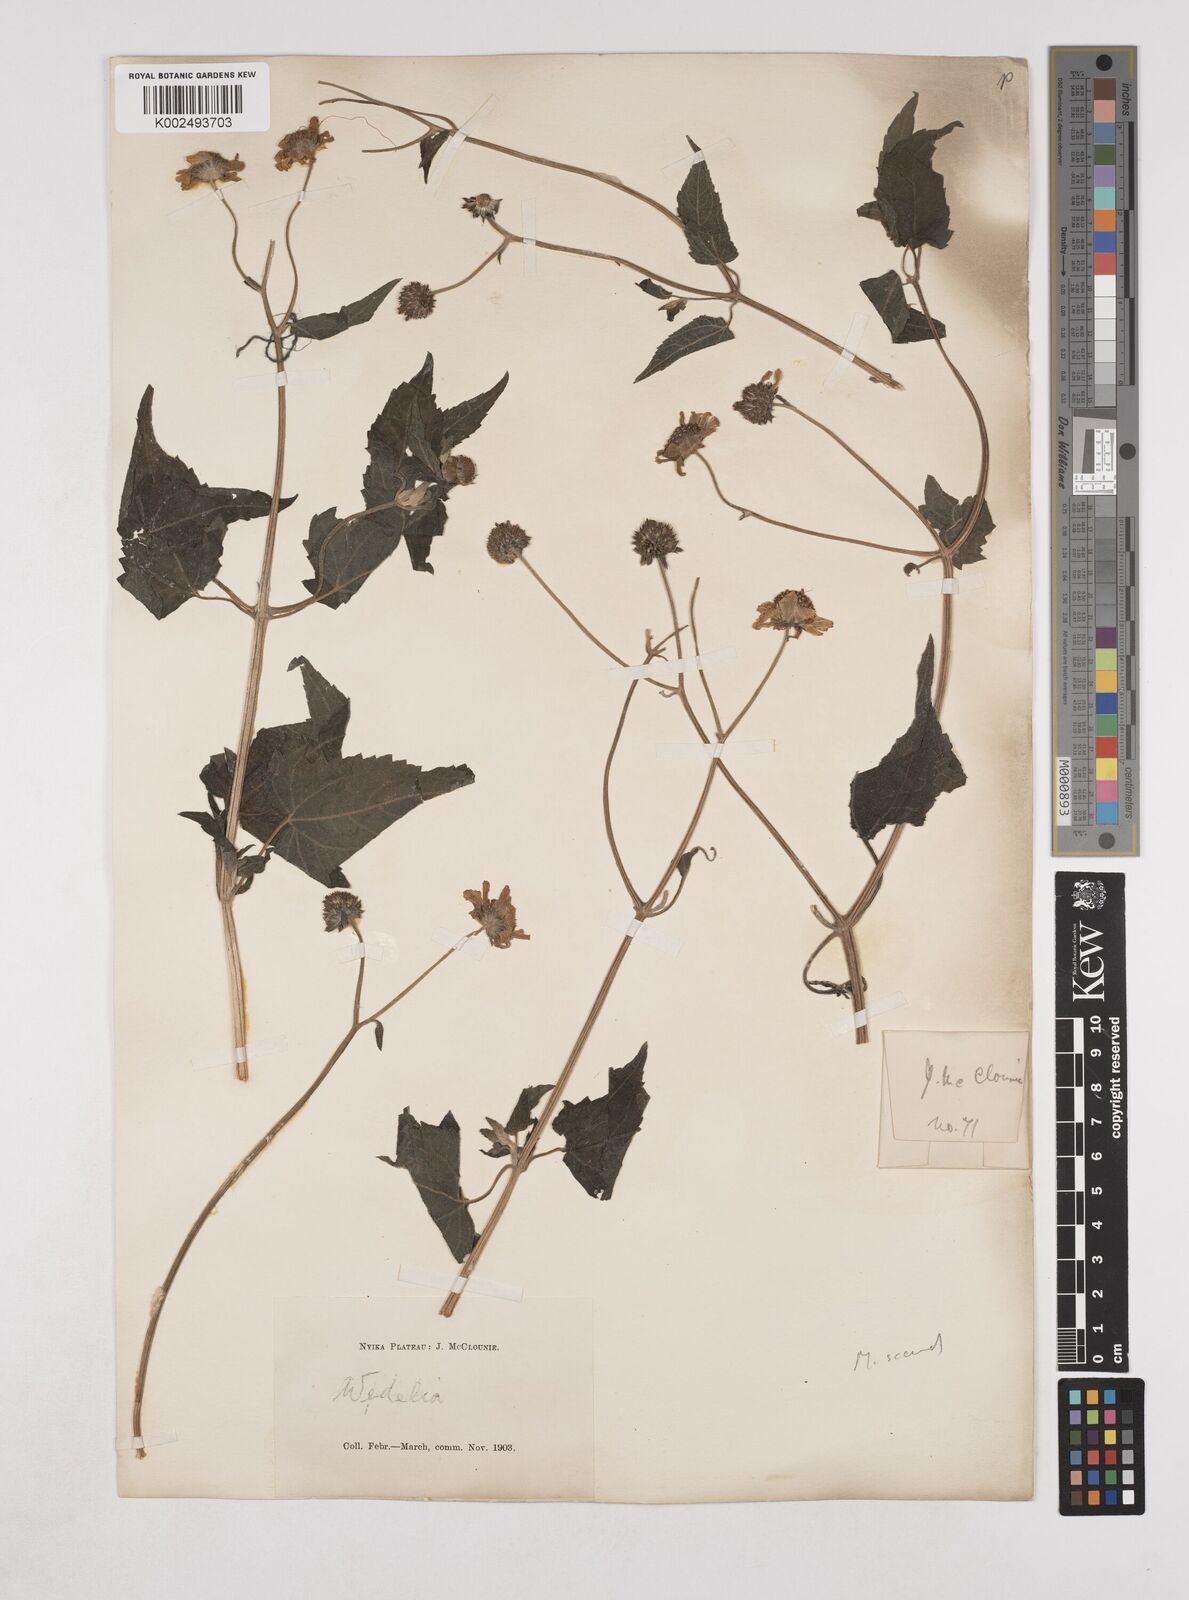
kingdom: Plantae
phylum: Tracheophyta
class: Magnoliopsida
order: Asterales
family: Asteraceae
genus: Lipotriche
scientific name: Lipotriche scandens
